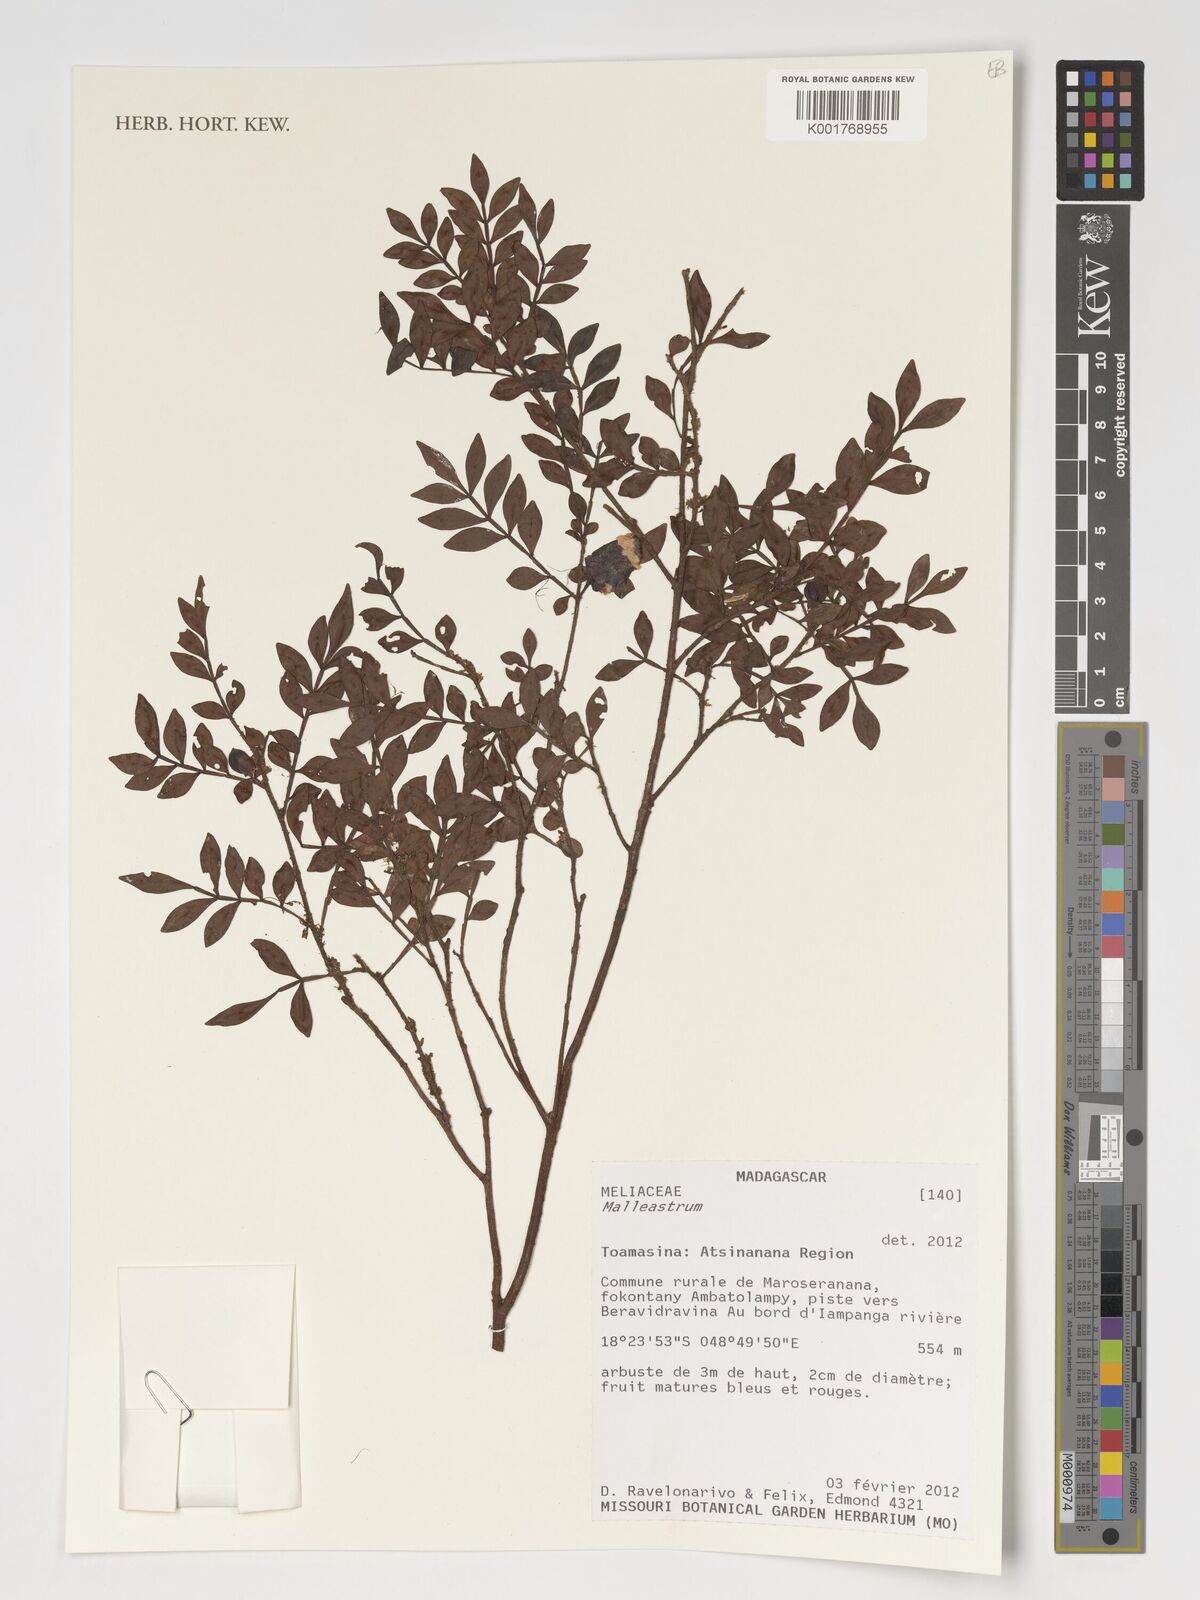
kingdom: Plantae
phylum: Tracheophyta
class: Magnoliopsida
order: Sapindales
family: Meliaceae
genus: Malleastrum
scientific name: Malleastrum
